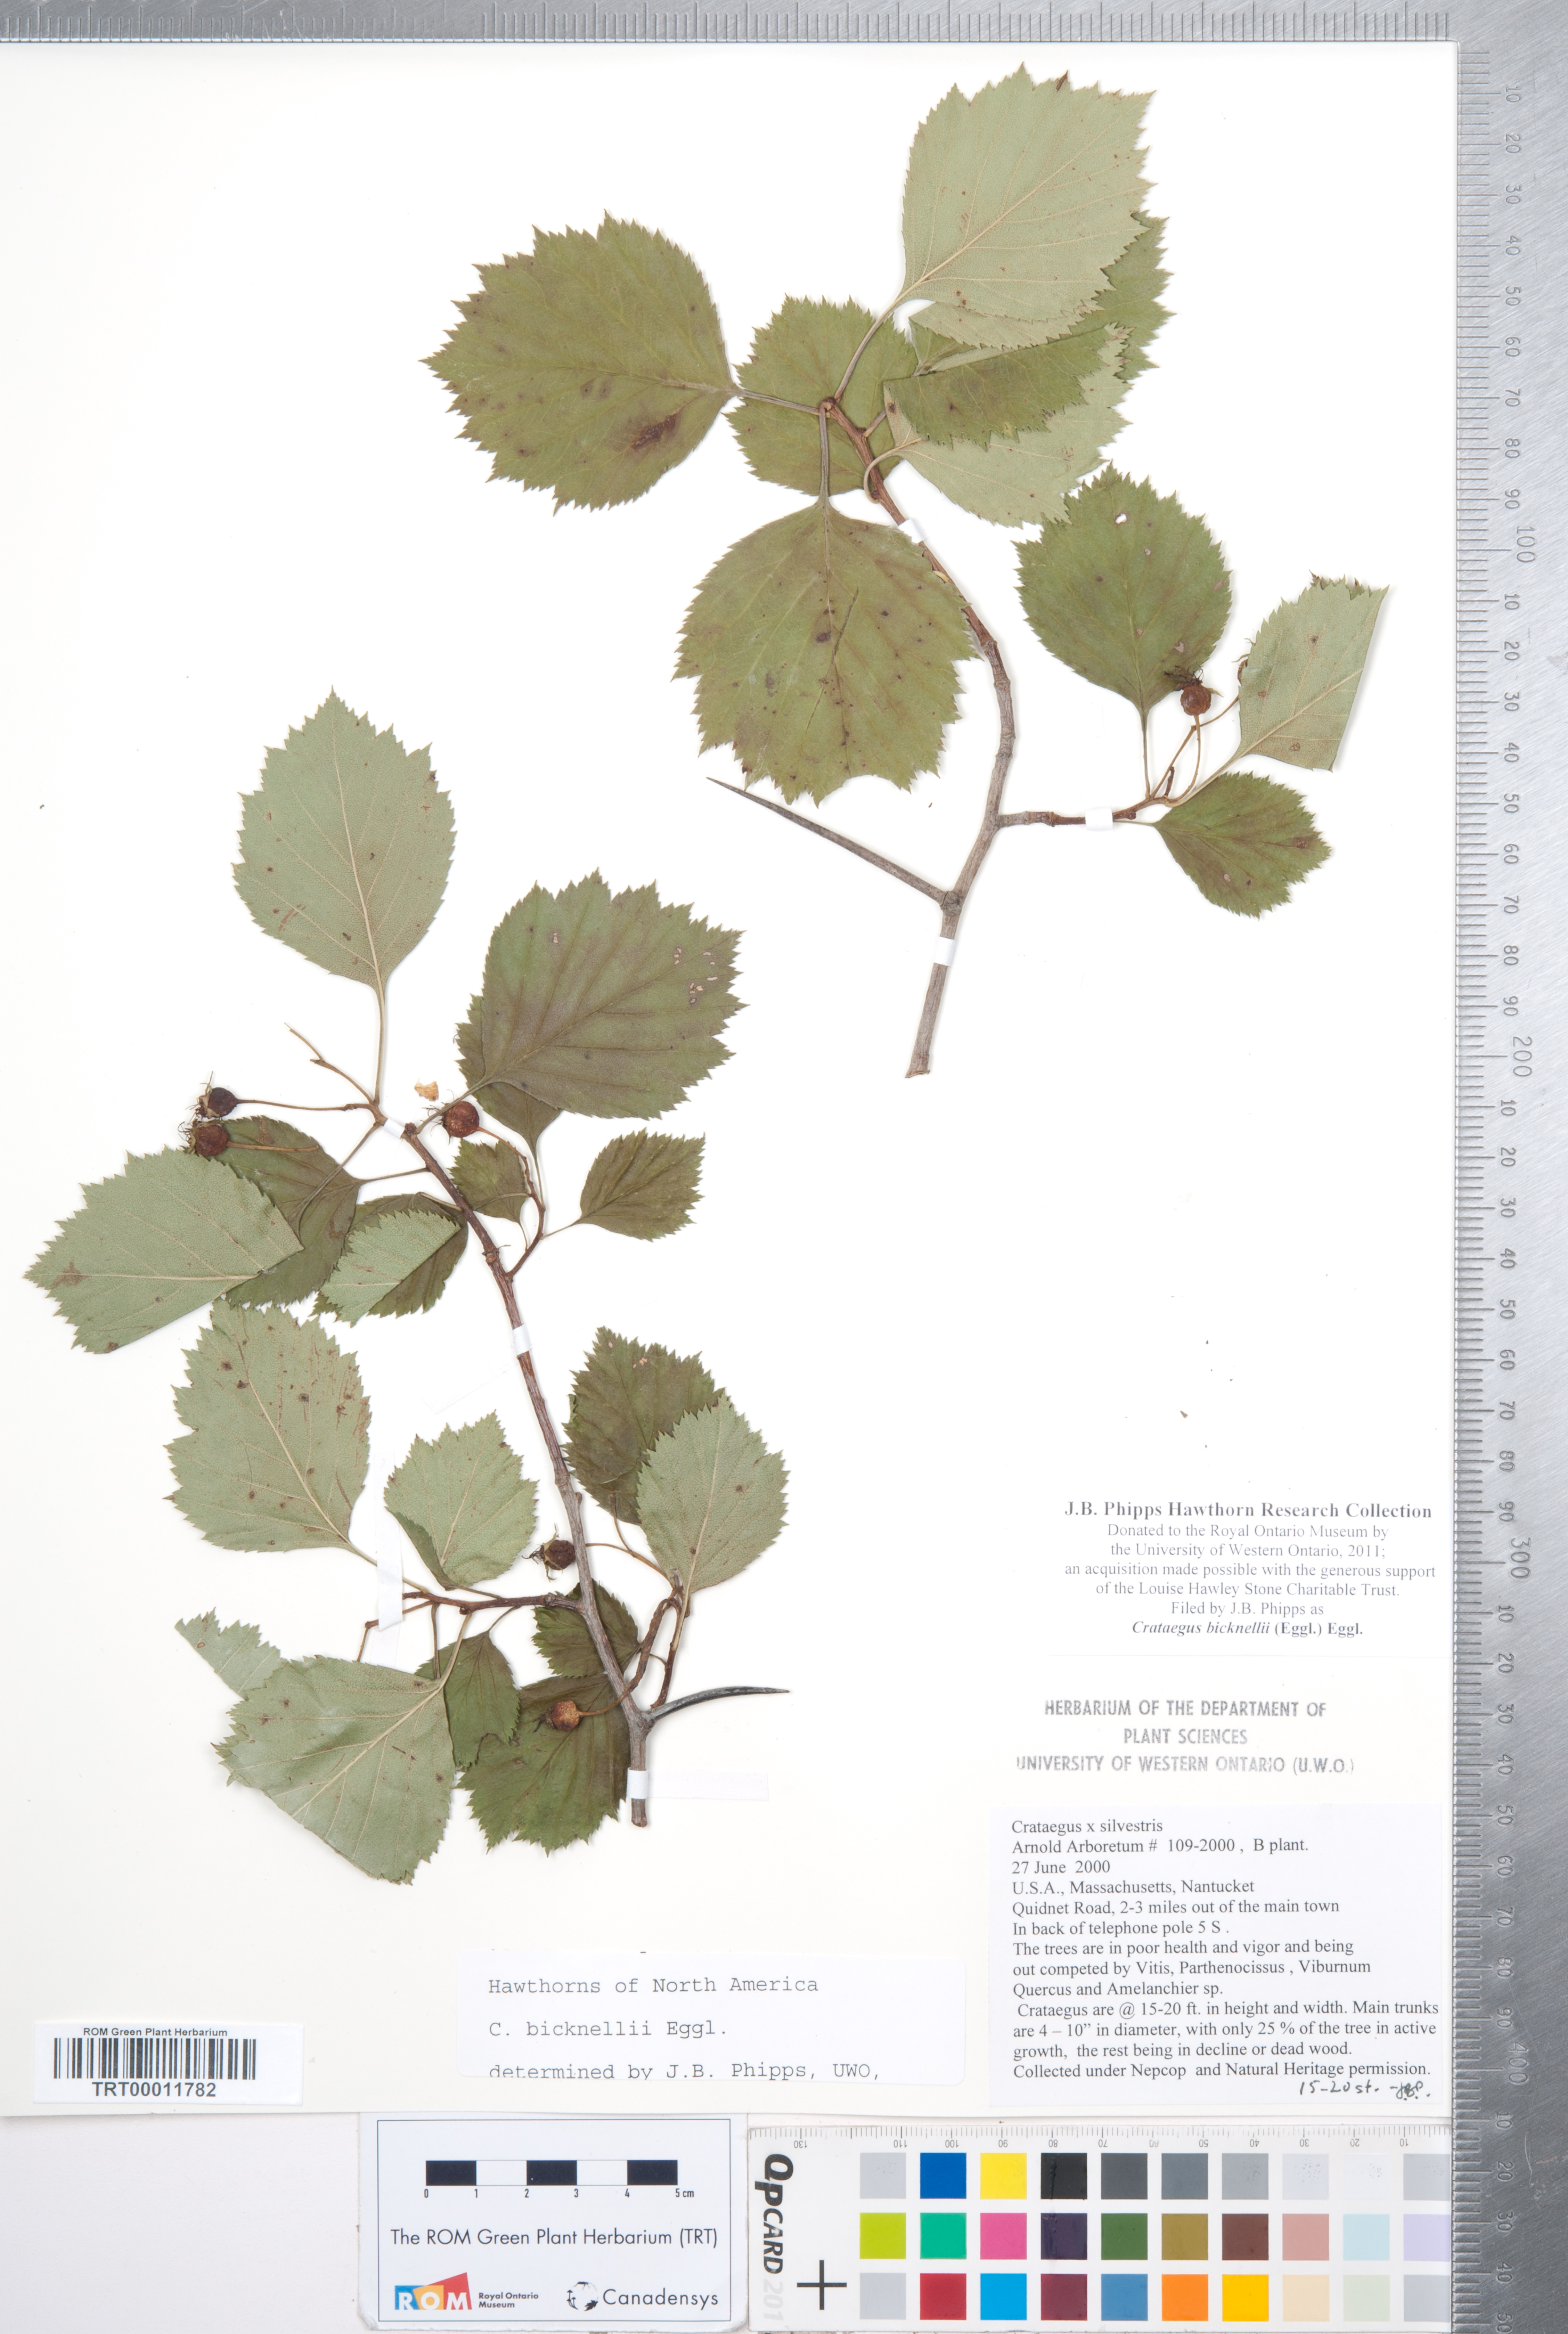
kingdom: Plantae
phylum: Tracheophyta
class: Magnoliopsida
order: Rosales
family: Rosaceae
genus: Crataegus
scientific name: Crataegus bicknellii
